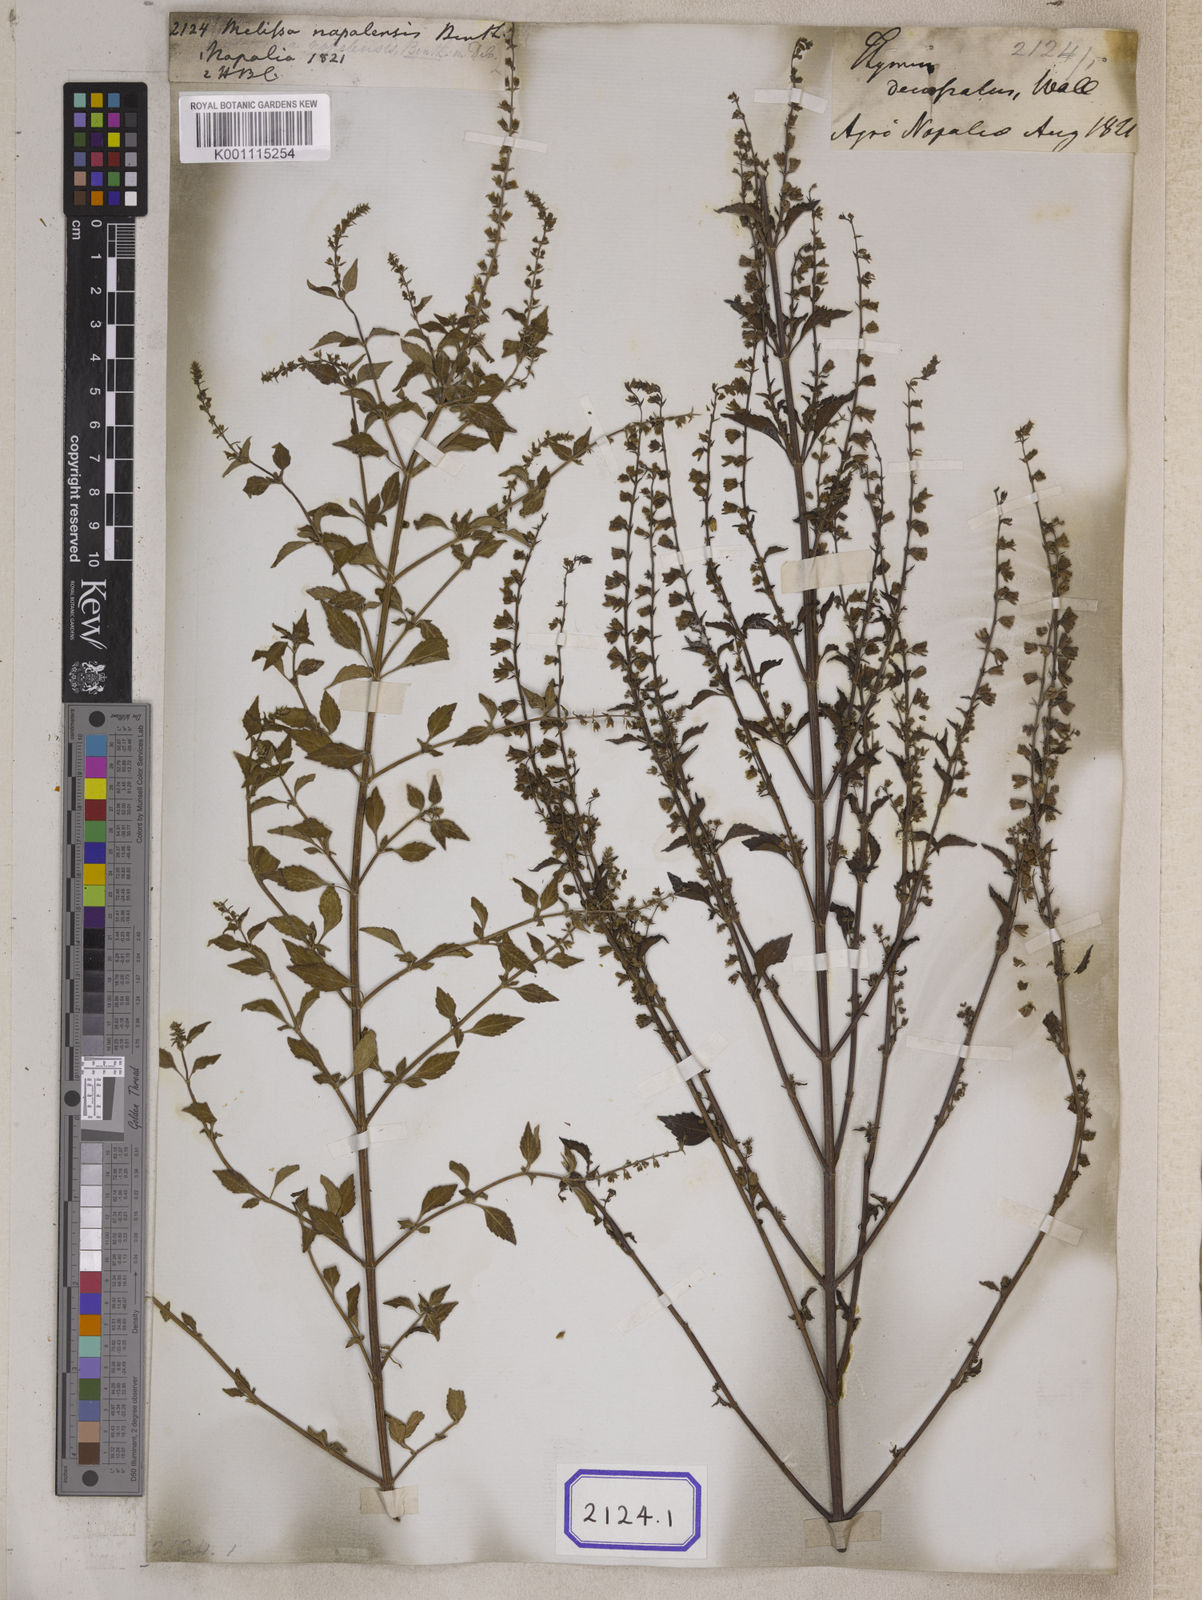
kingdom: Plantae
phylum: Tracheophyta
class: Magnoliopsida
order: Lamiales
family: Lamiaceae
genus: Mosla
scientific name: Mosla dianthera
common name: Miniature beefsteakplant
